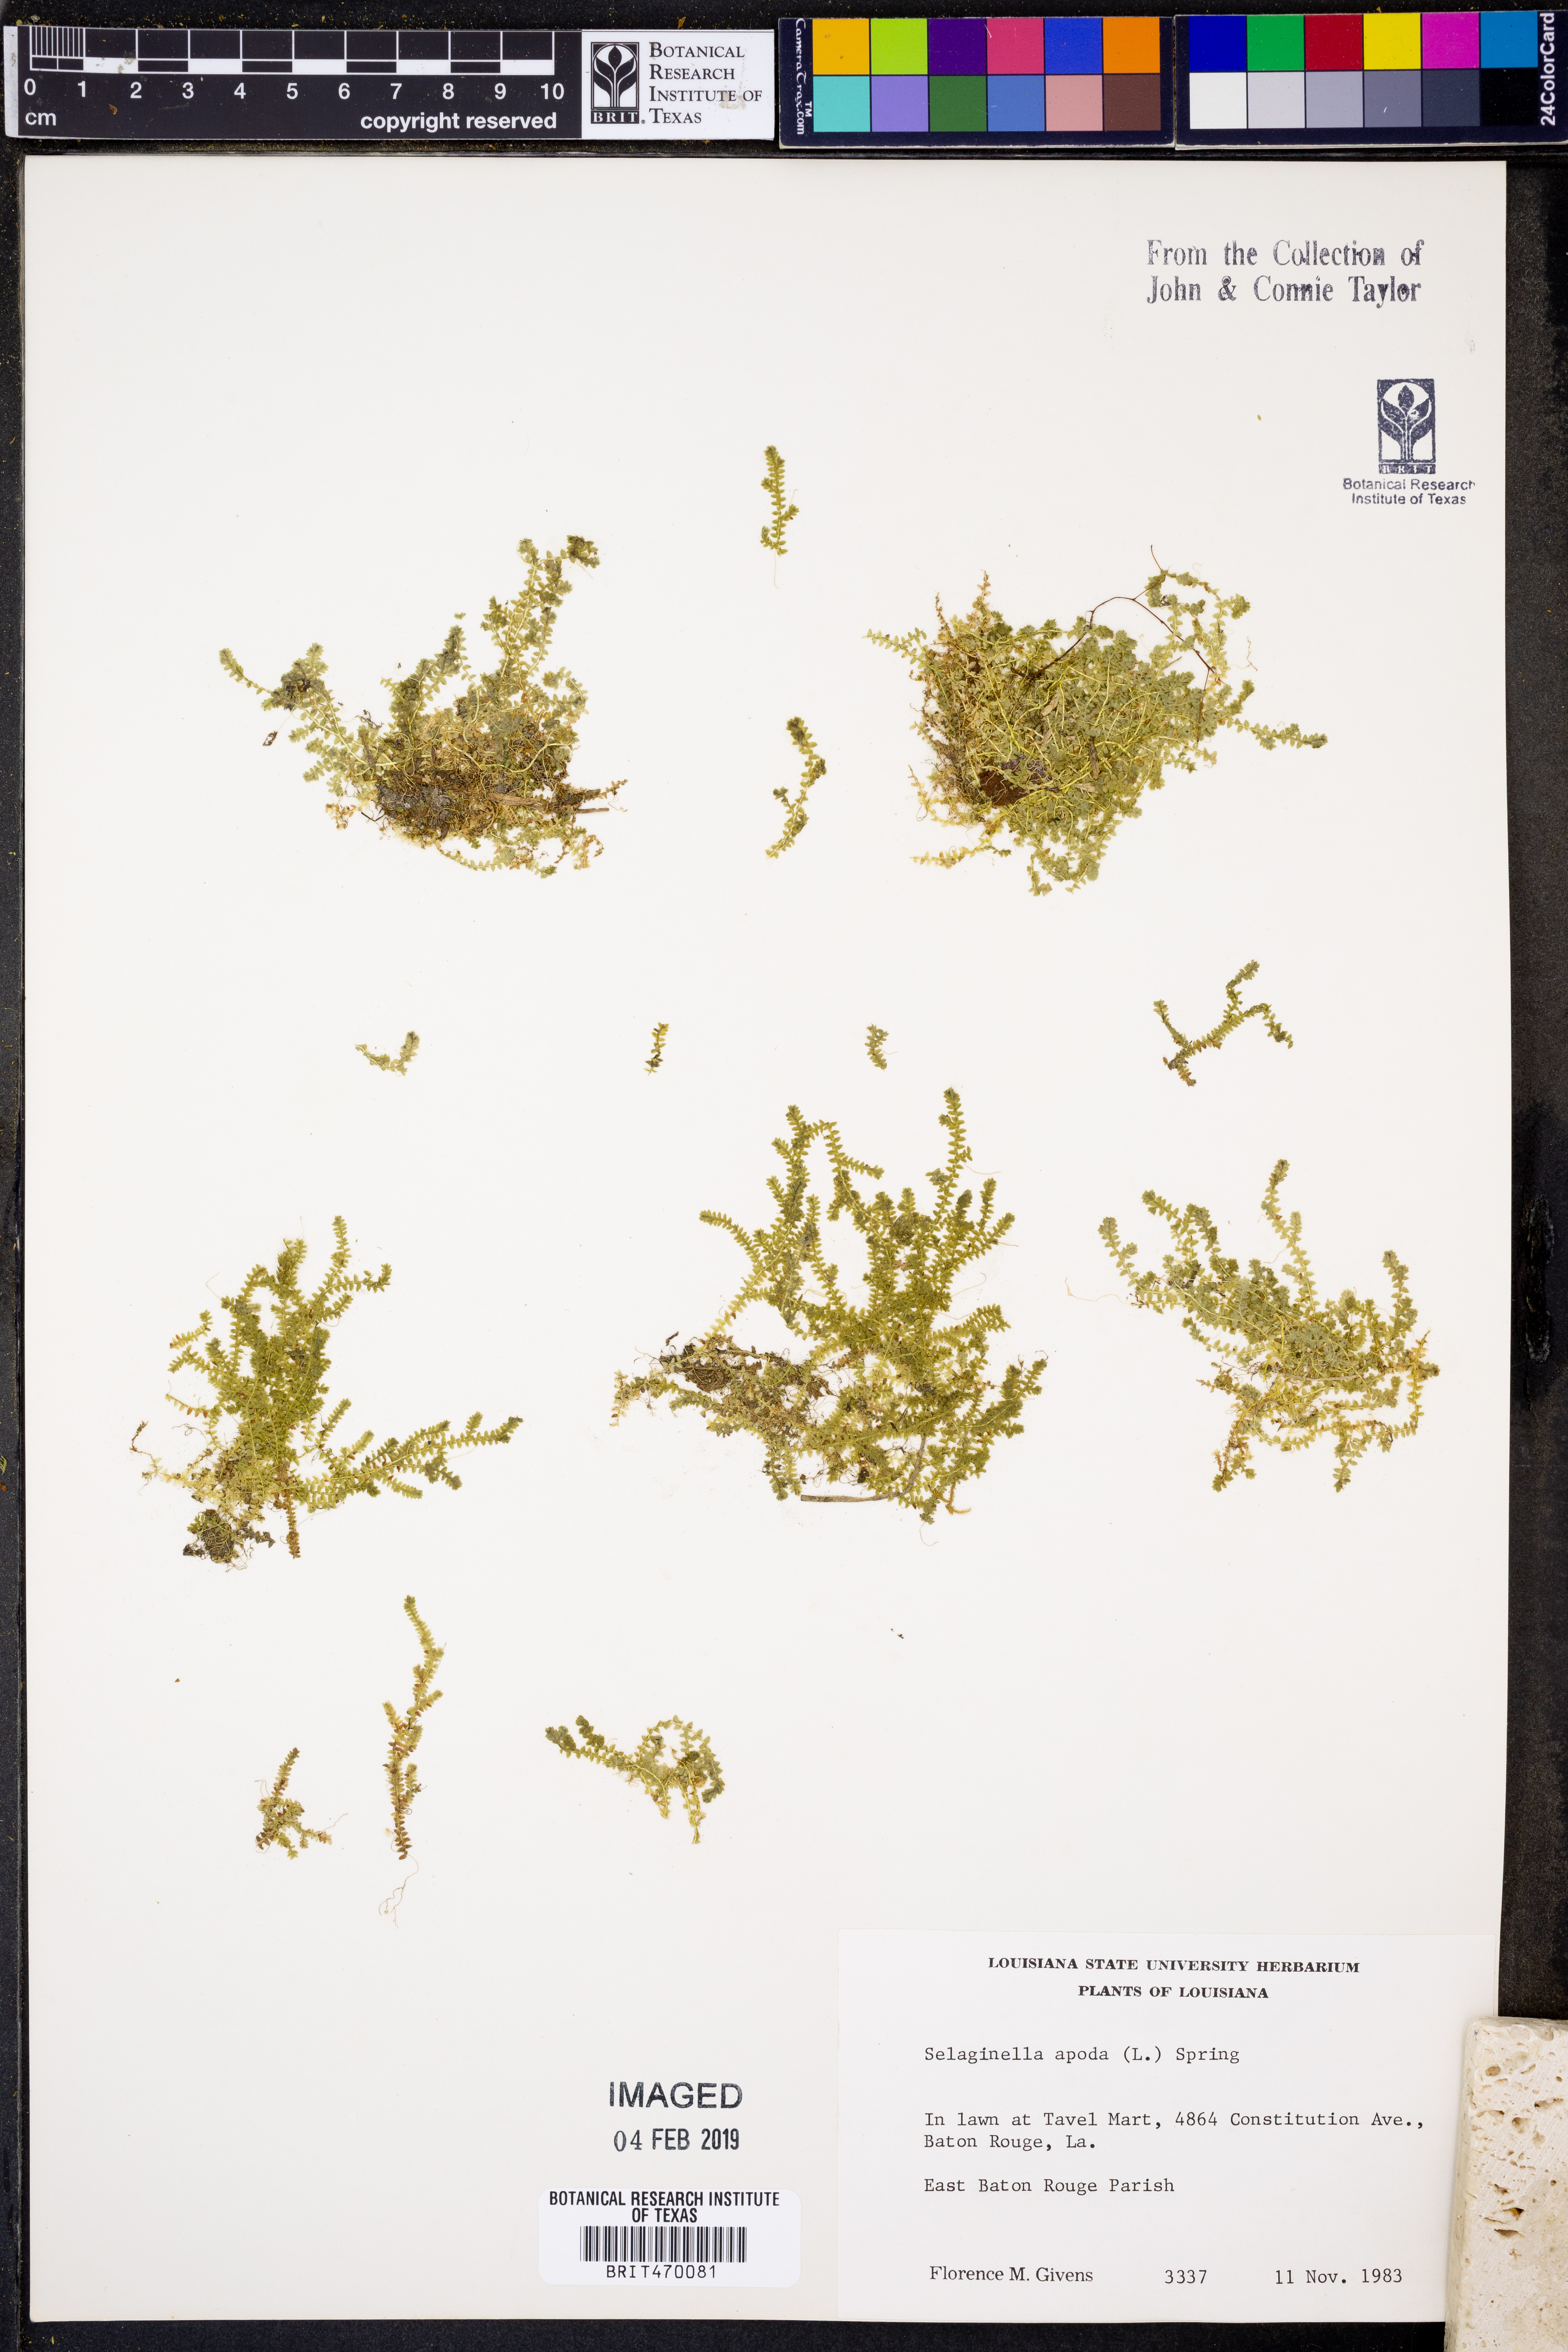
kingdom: Plantae
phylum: Tracheophyta
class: Lycopodiopsida
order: Selaginellales
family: Selaginellaceae
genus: Selaginella
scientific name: Selaginella apoda
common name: Creeping spikemoss
